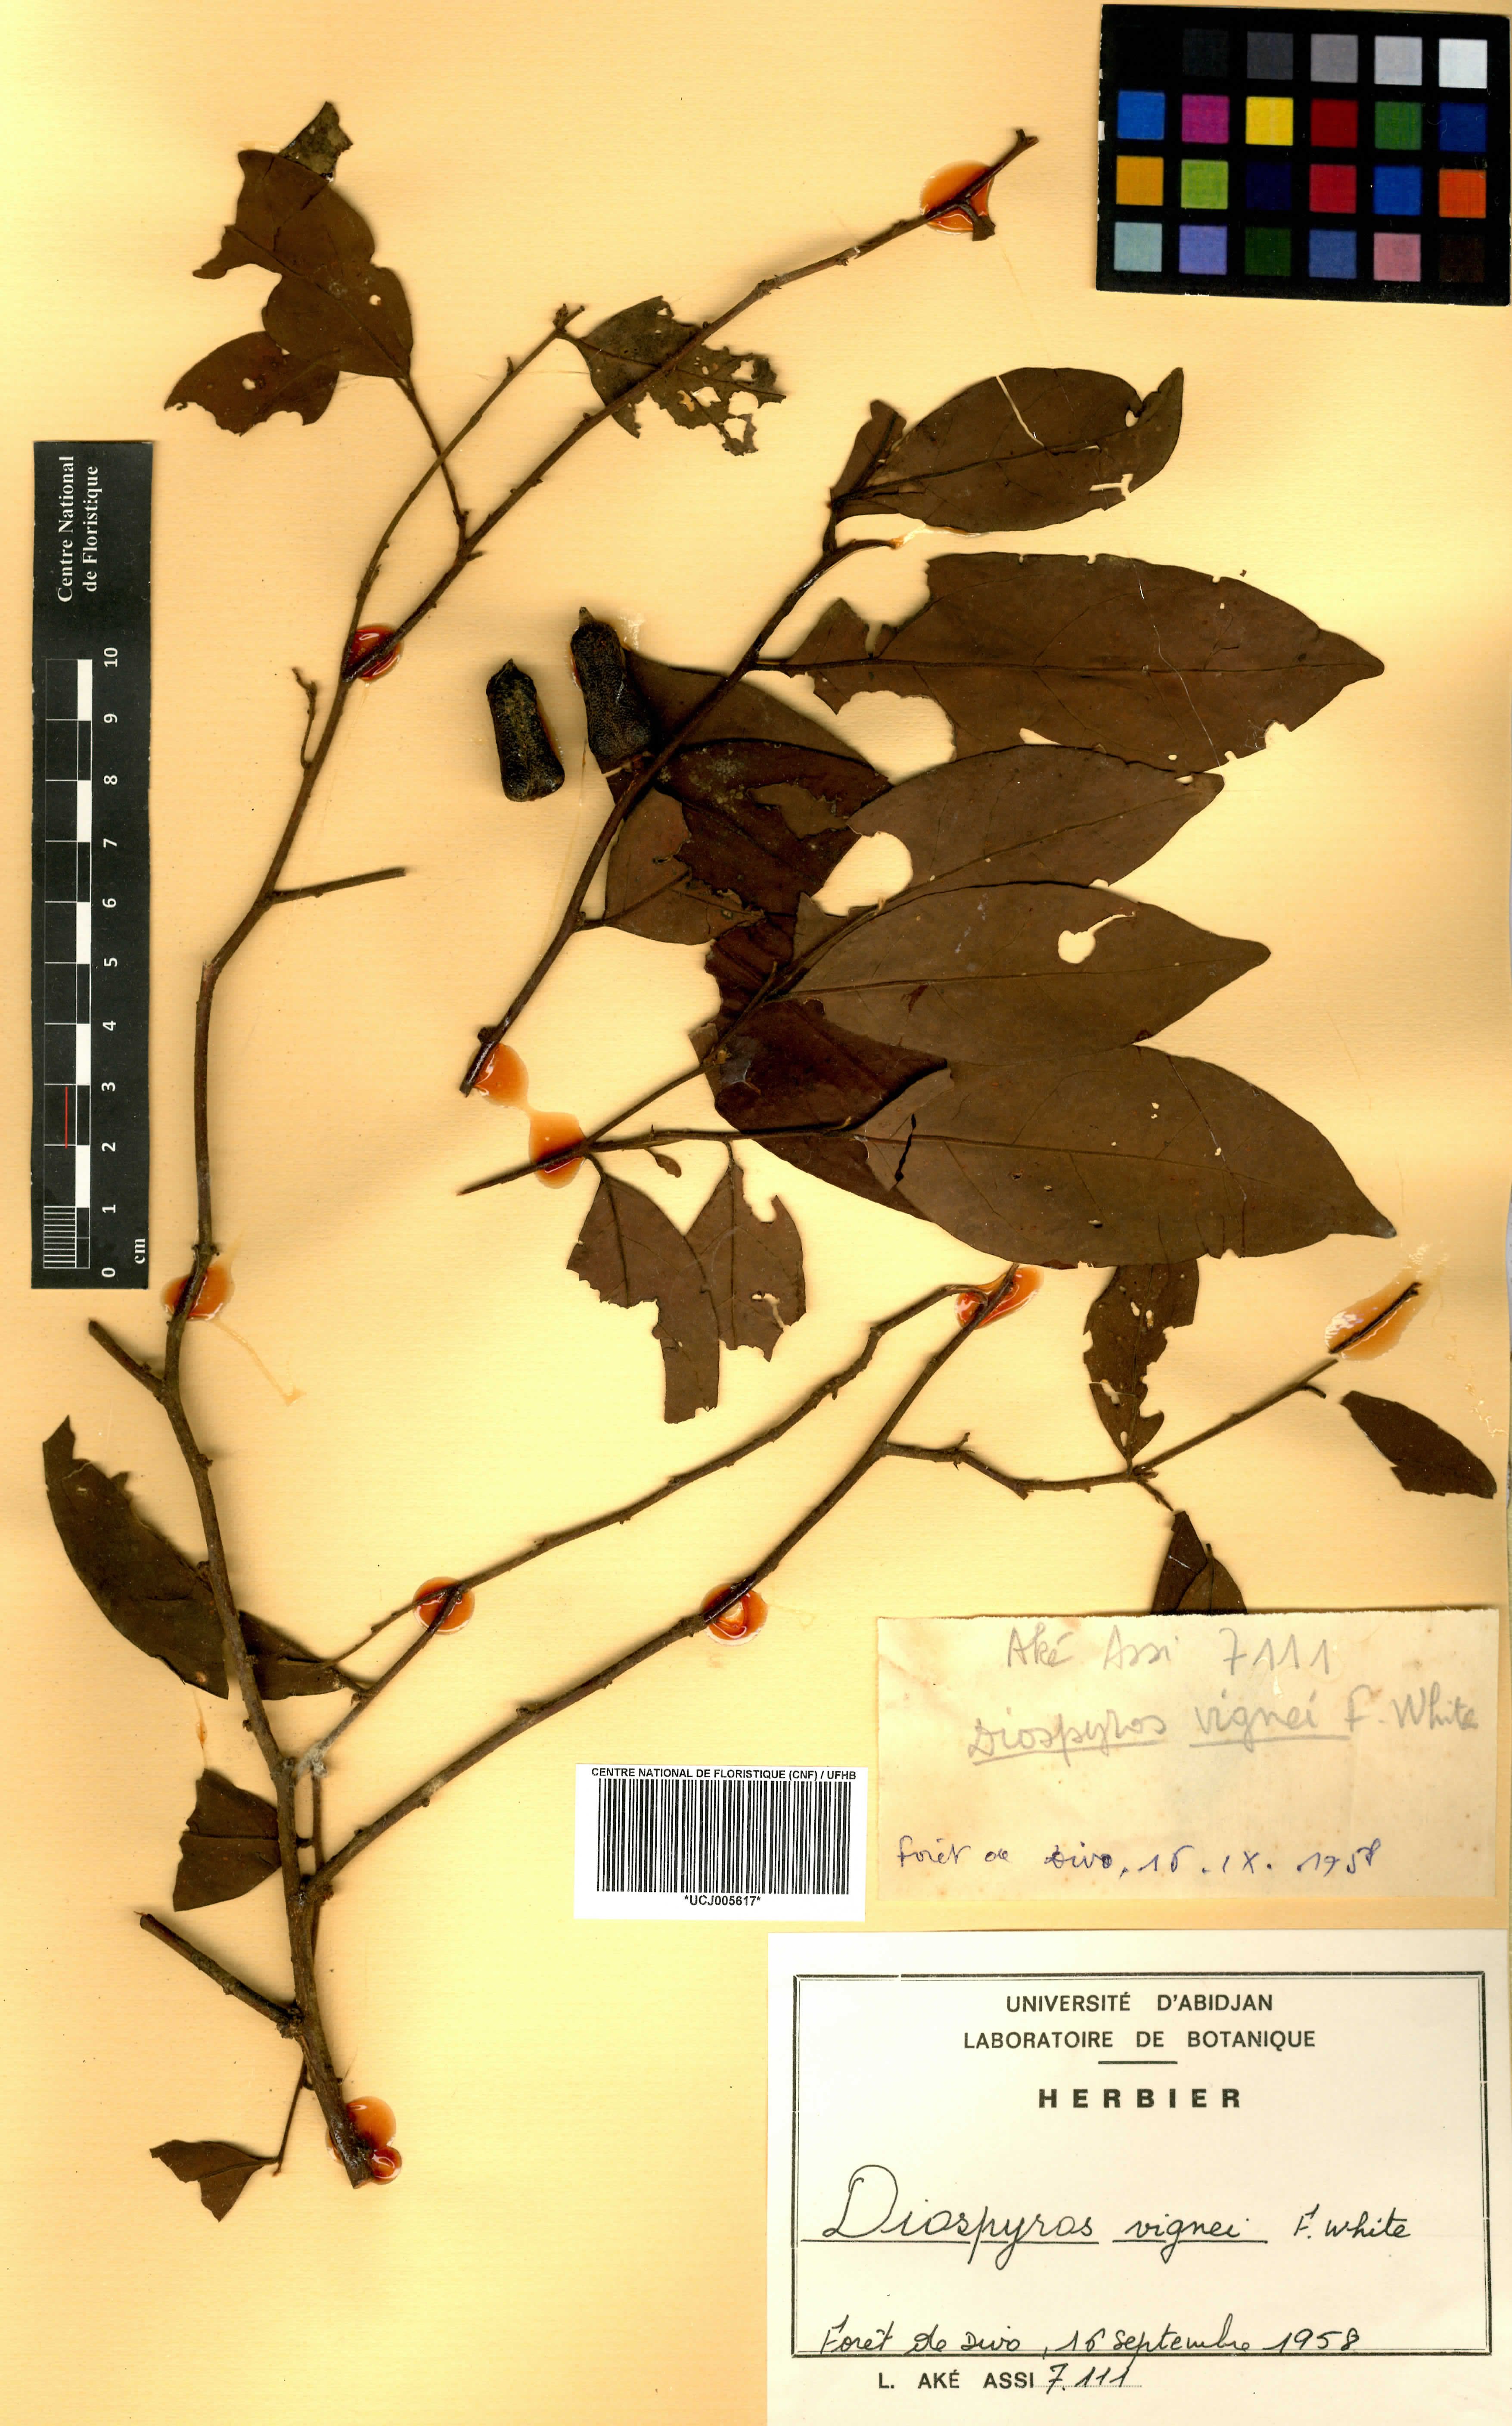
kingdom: Plantae
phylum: Tracheophyta
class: Magnoliopsida
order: Ericales
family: Ebenaceae
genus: Diospyros
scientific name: Diospyros vignei
